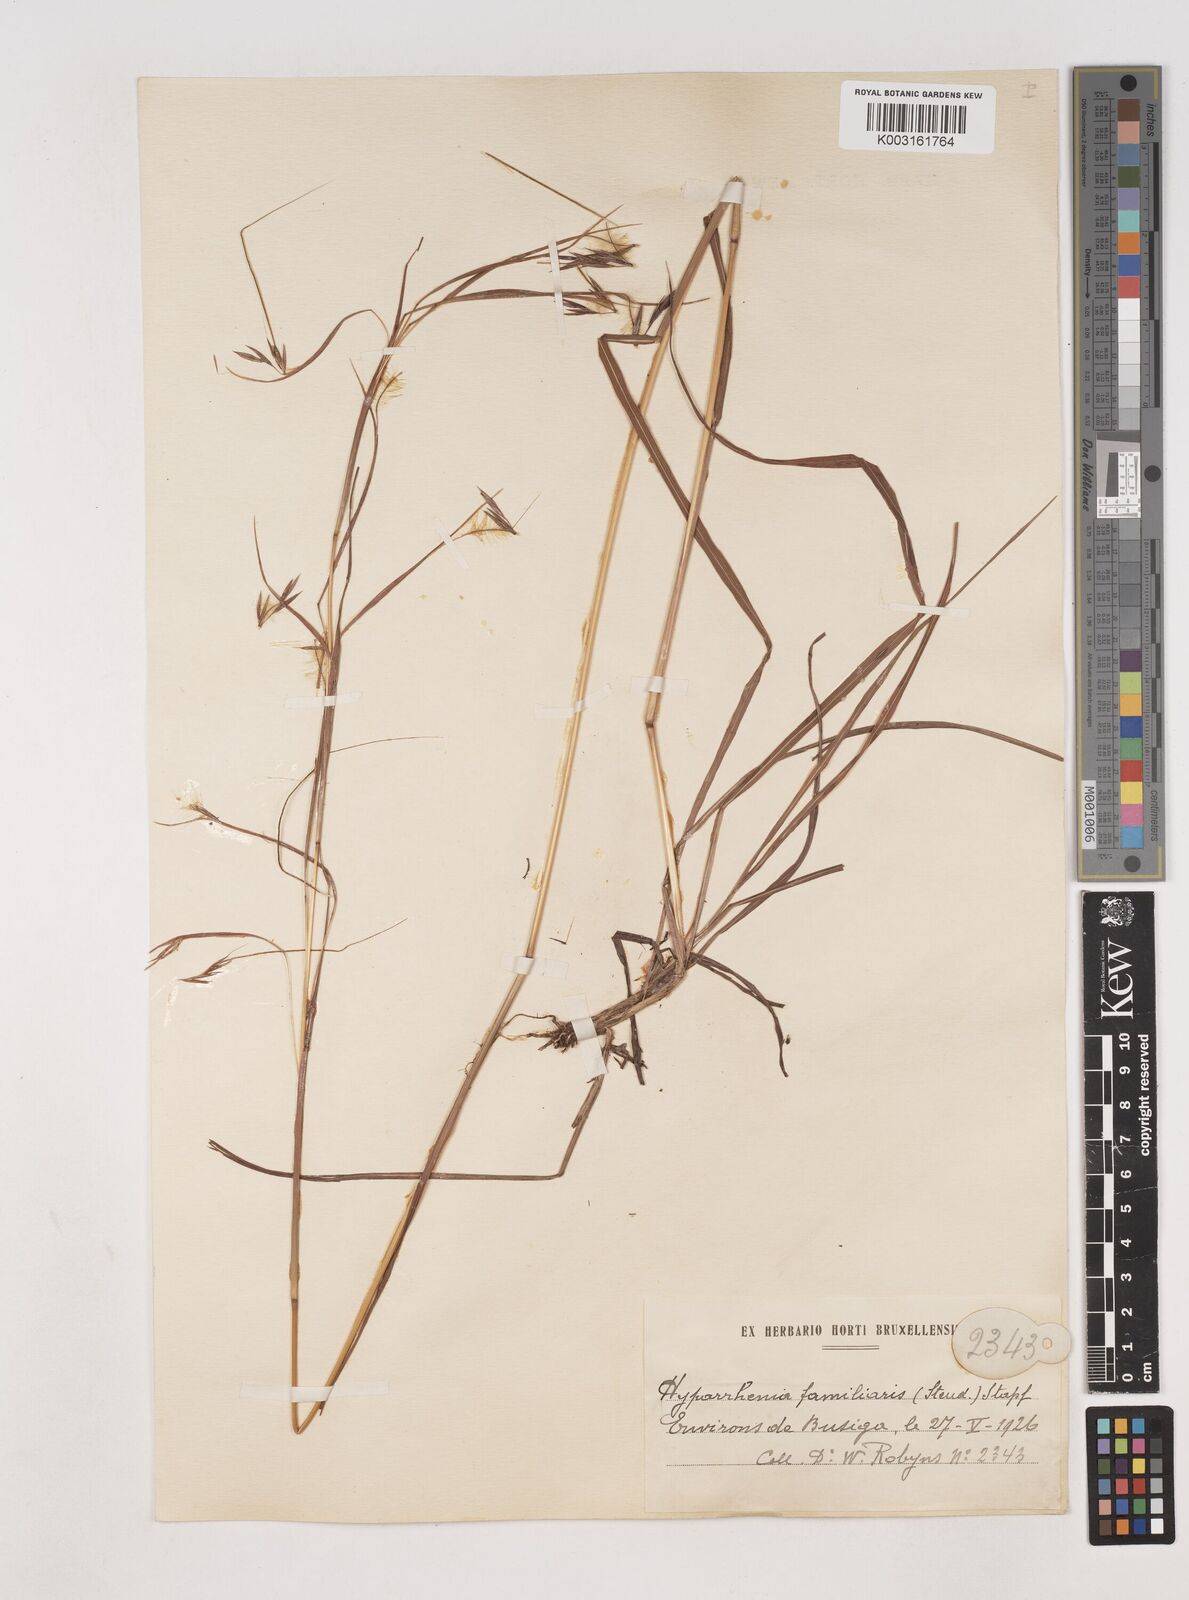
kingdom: Plantae
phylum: Tracheophyta
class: Liliopsida
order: Poales
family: Poaceae
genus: Hyparrhenia
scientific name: Hyparrhenia familiaris
